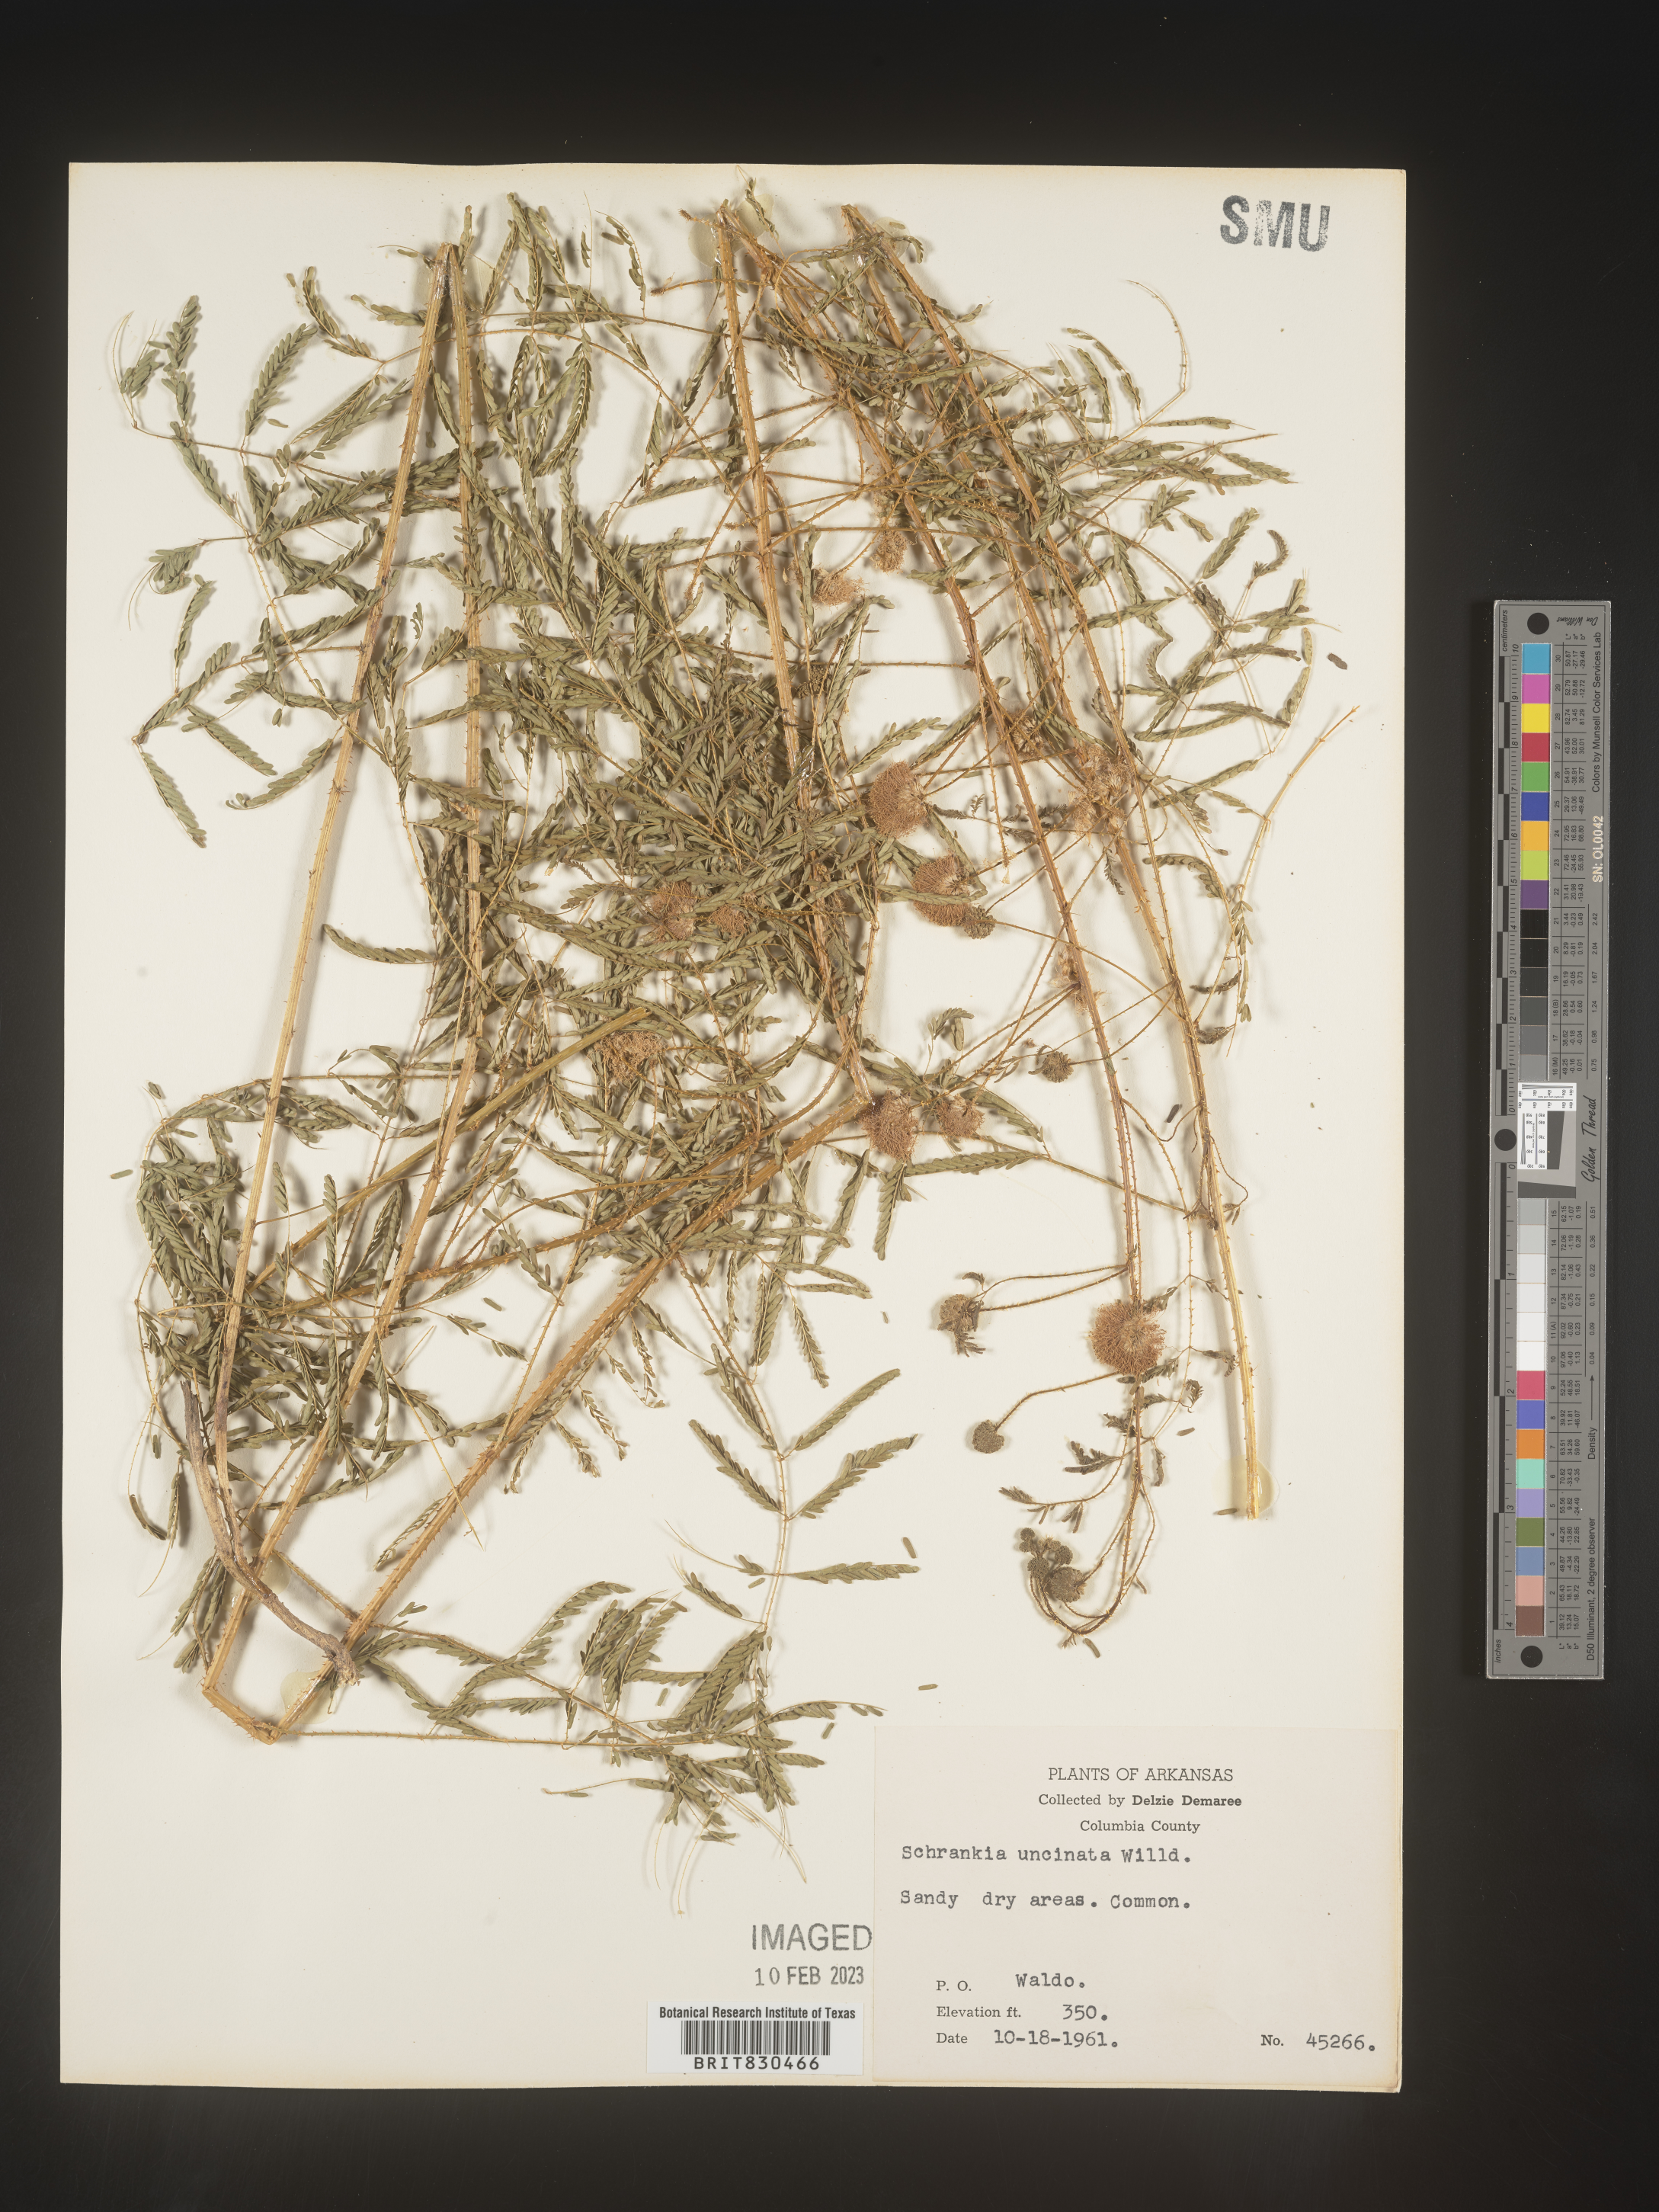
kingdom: Plantae
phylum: Tracheophyta
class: Magnoliopsida
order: Fabales
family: Fabaceae
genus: Mimosa
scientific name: Mimosa quadrivalvis
